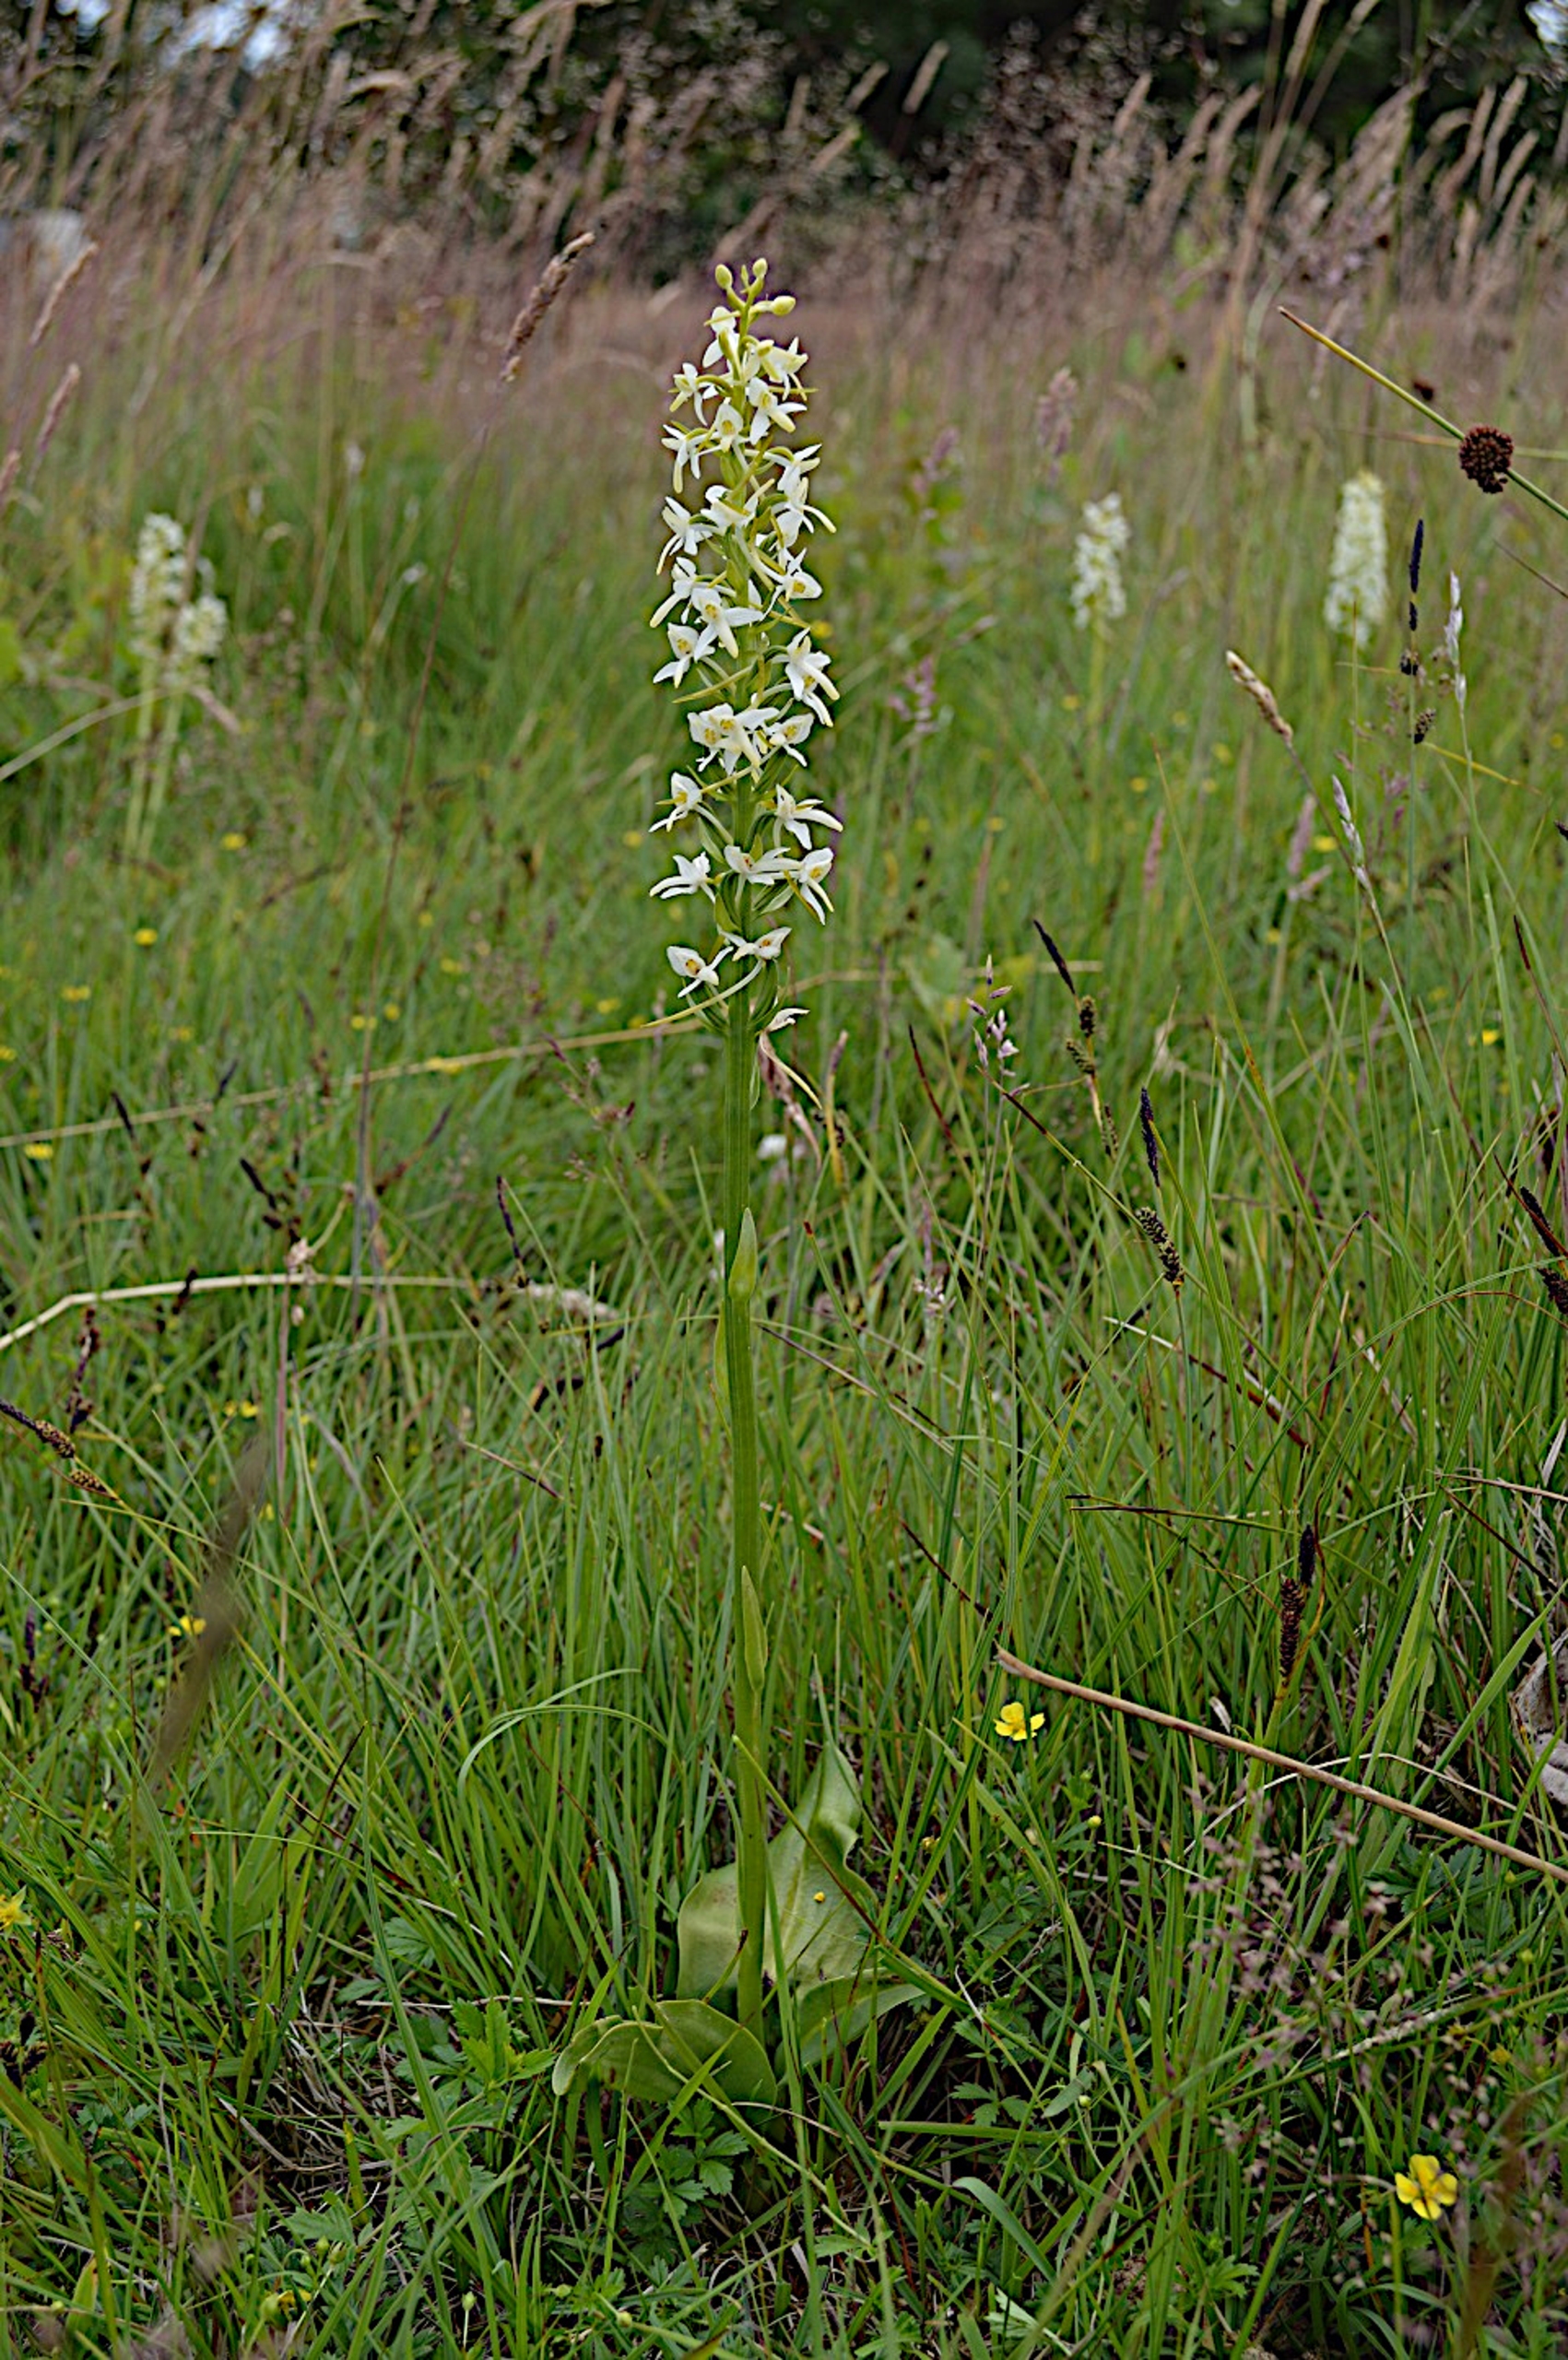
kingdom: Plantae
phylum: Tracheophyta
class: Liliopsida
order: Asparagales
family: Orchidaceae
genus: Platanthera
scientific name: Platanthera bifolia
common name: Bakke-gøgelilje
